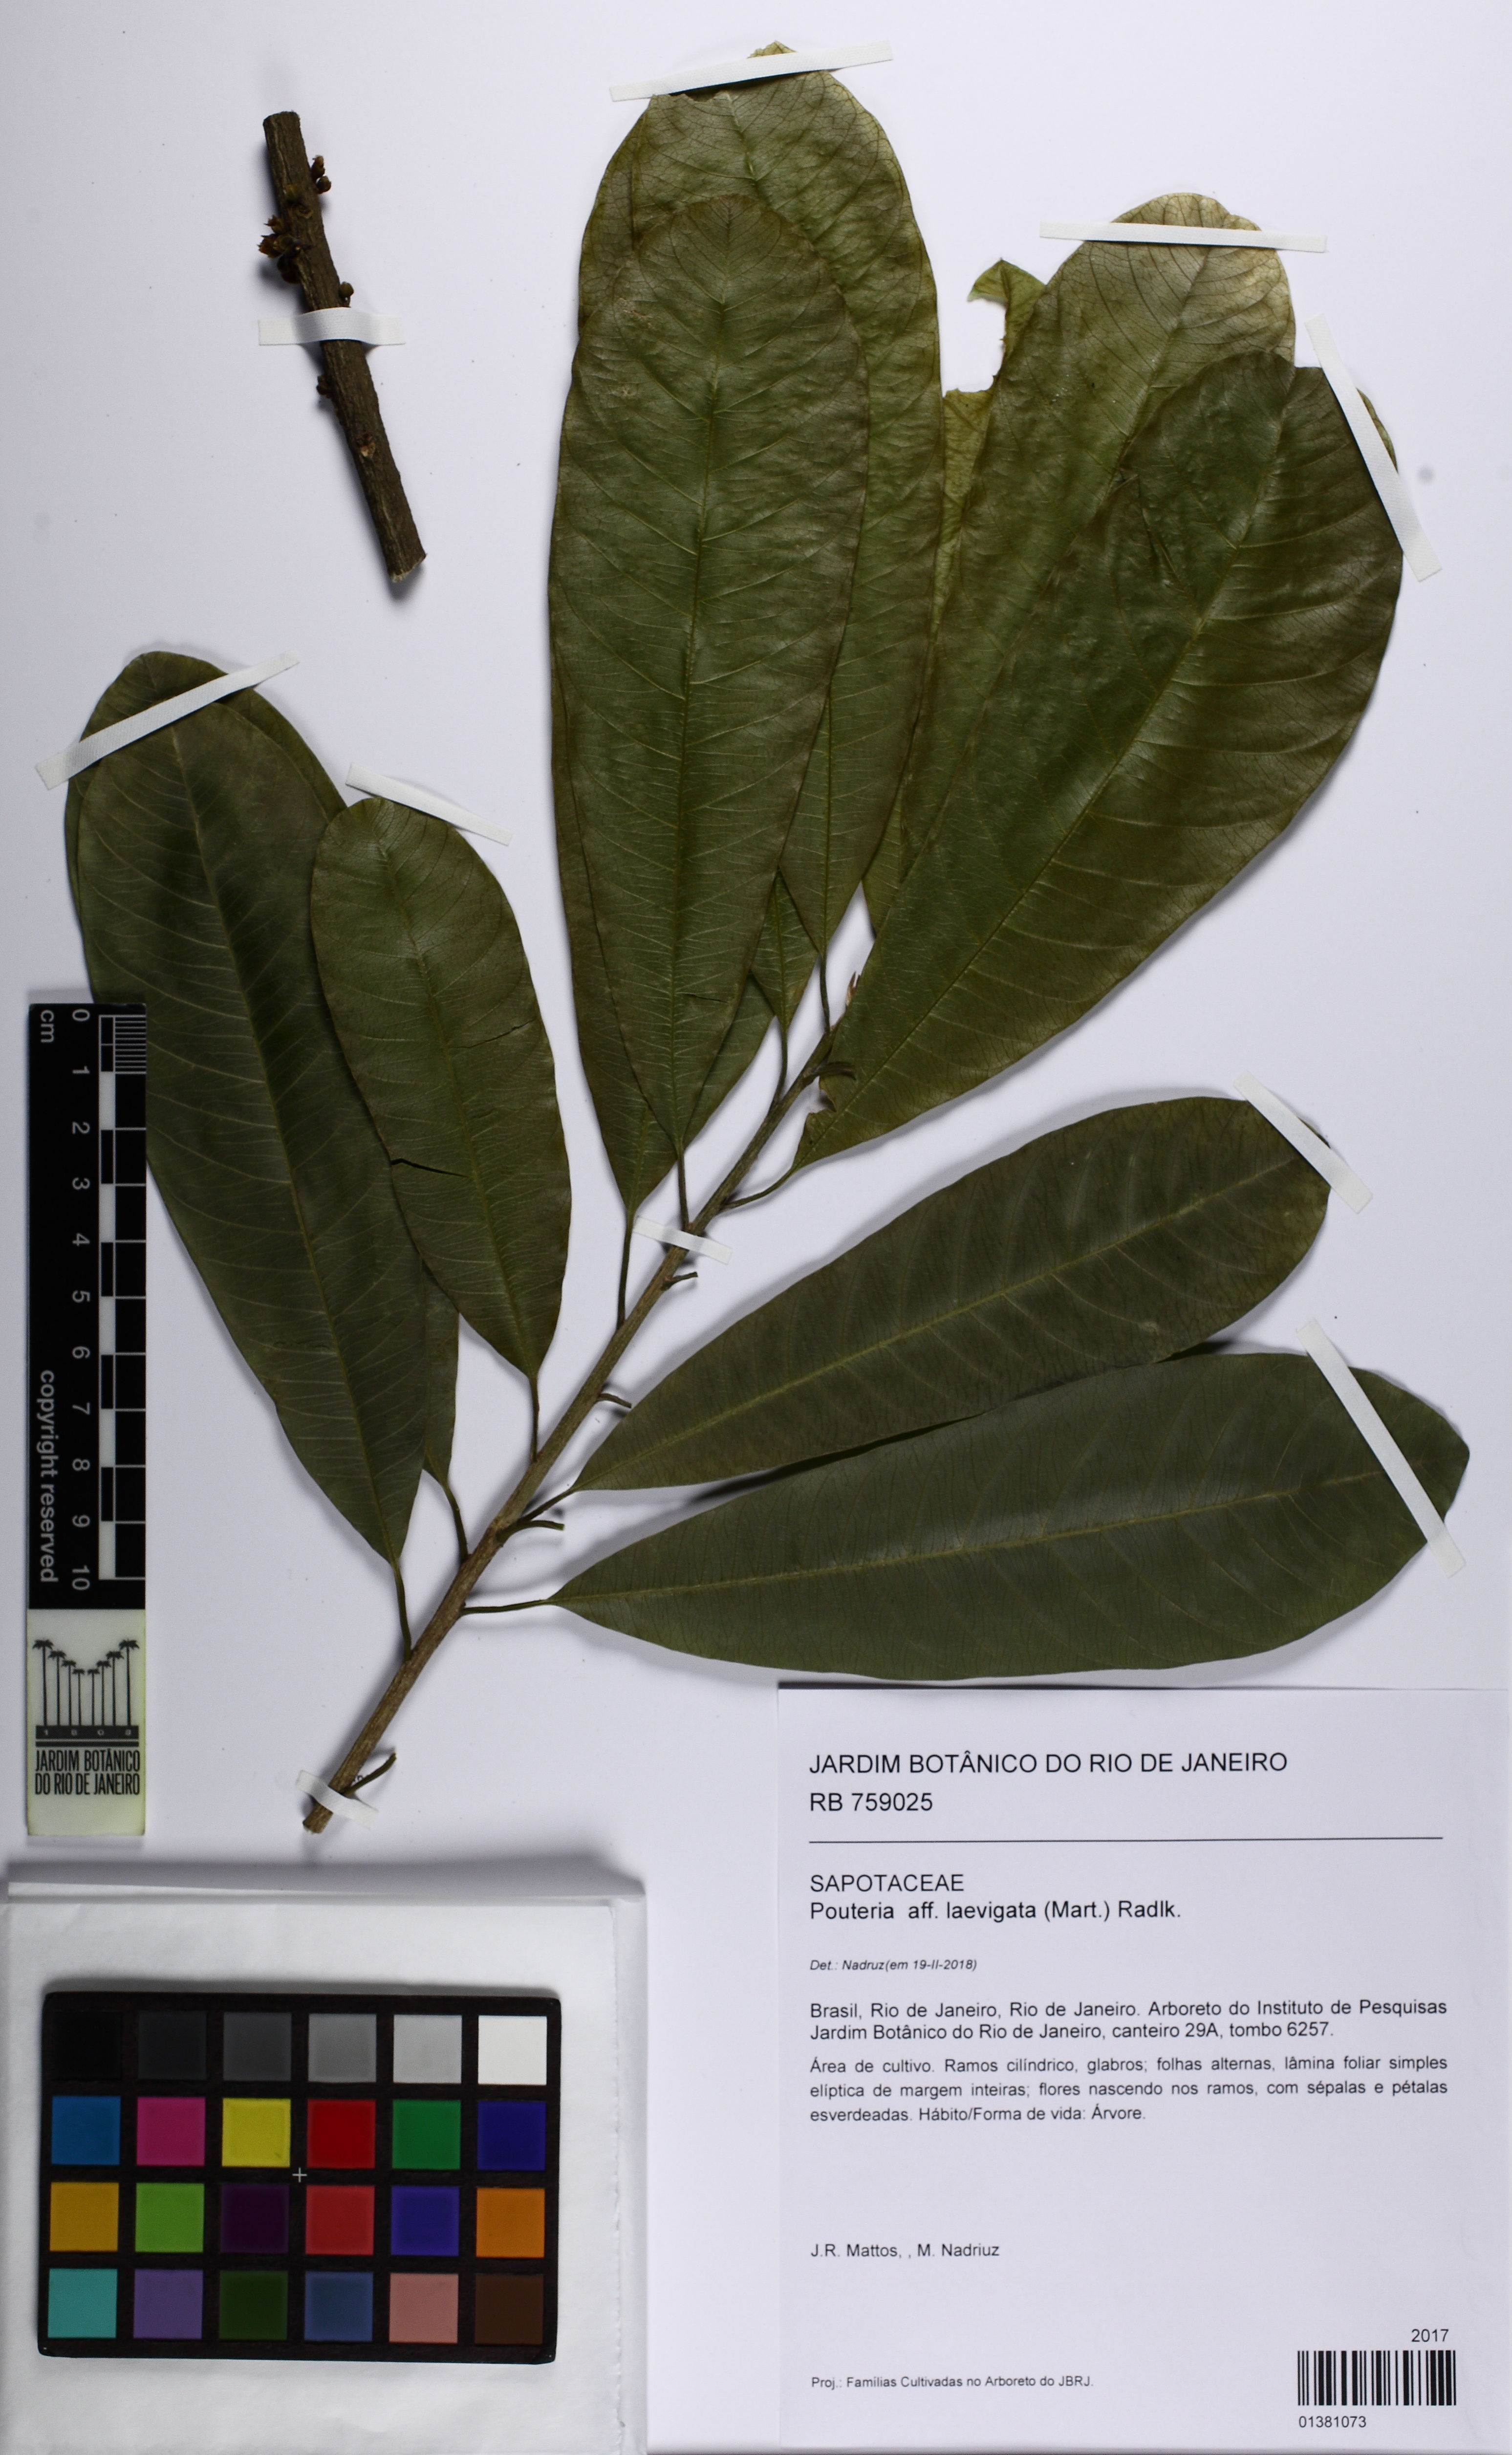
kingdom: Plantae
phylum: Tracheophyta
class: Magnoliopsida
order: Ericales
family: Sapotaceae
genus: Pouteria
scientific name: Pouteria laevigata
